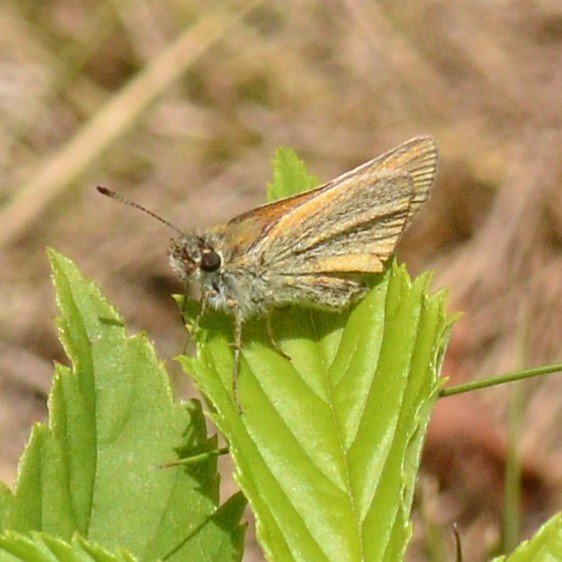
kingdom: Animalia
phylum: Arthropoda
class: Insecta
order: Lepidoptera
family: Hesperiidae
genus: Thymelicus
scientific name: Thymelicus lineola
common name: European Skipper
